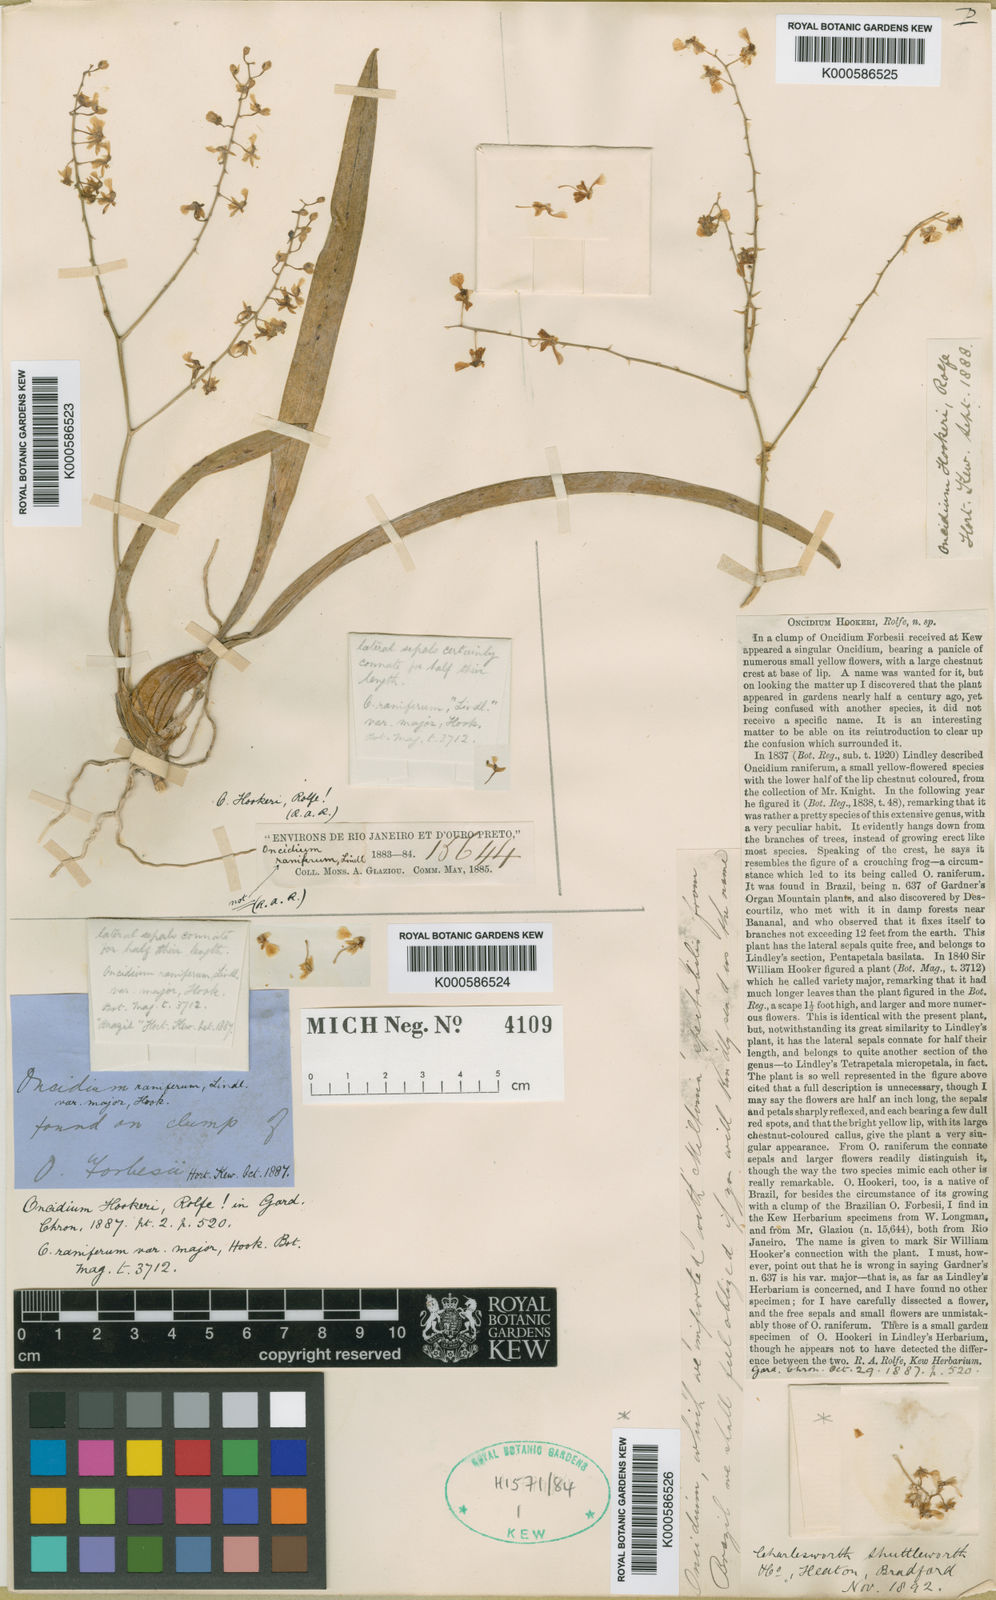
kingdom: Plantae
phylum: Tracheophyta
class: Liliopsida
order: Asparagales
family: Orchidaceae
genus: Gomesa
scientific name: Gomesa ranifera
